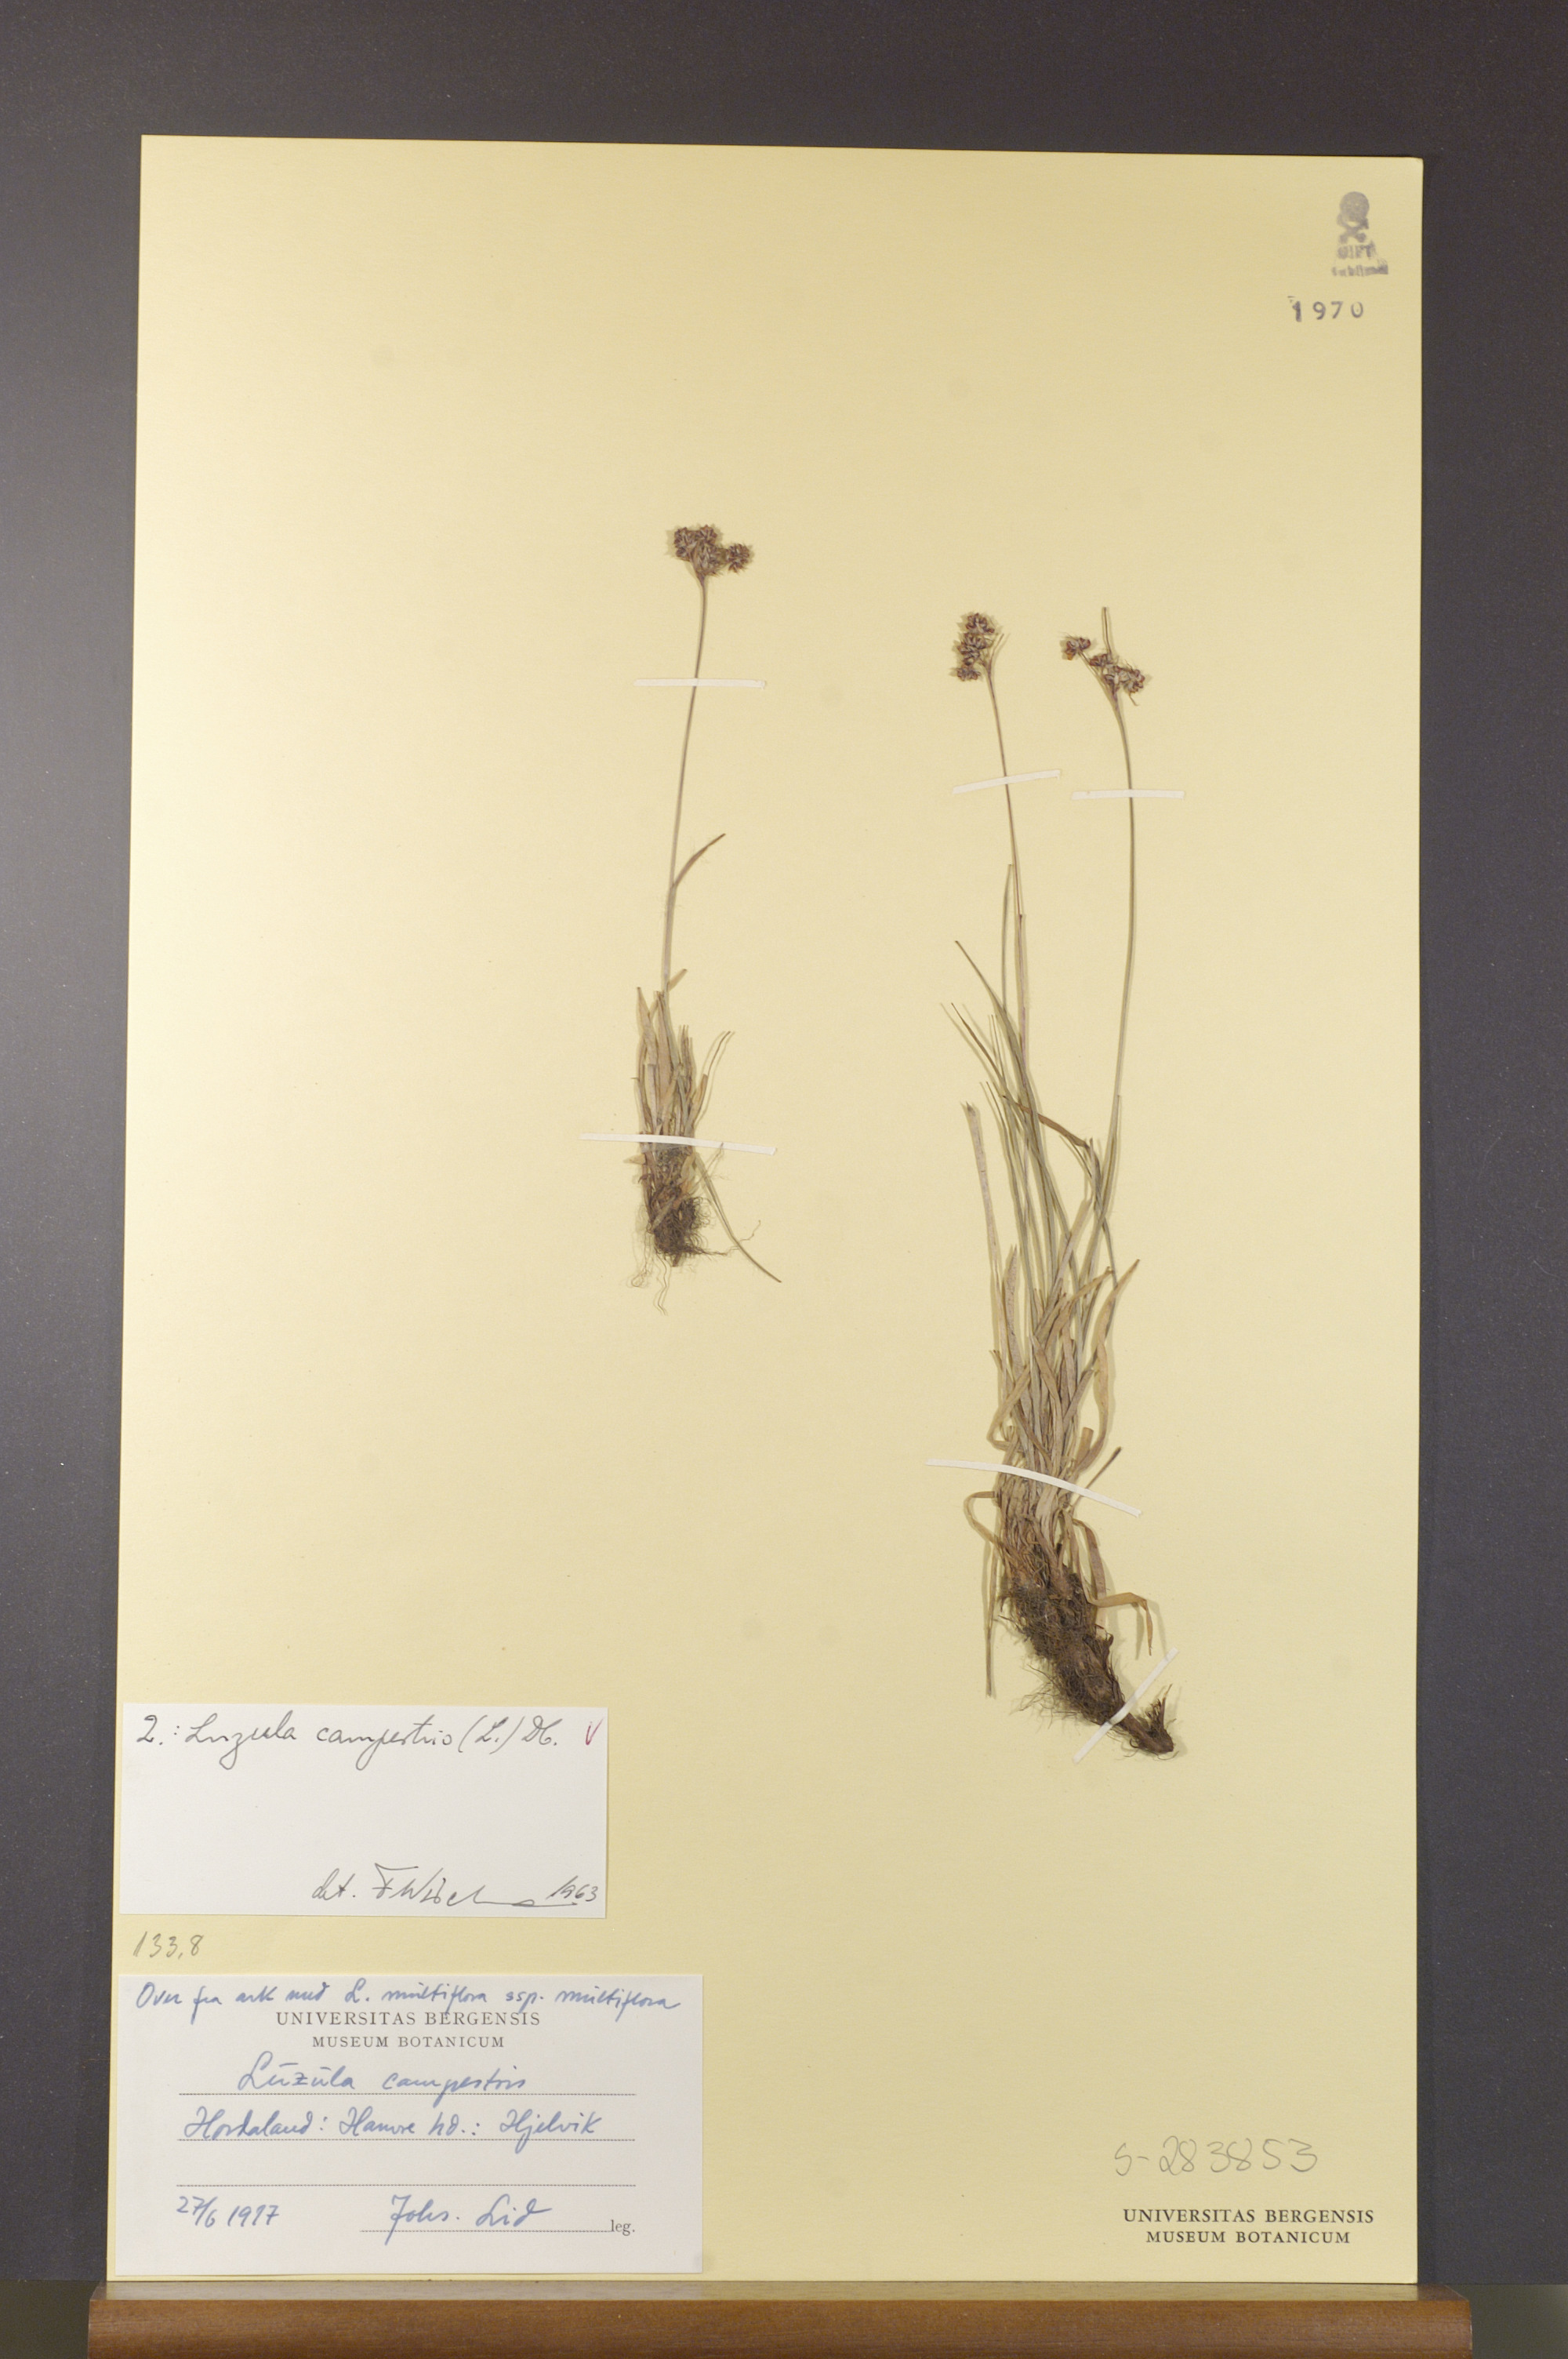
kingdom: Plantae
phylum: Tracheophyta
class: Liliopsida
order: Poales
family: Juncaceae
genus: Luzula
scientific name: Luzula campestris
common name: Field wood-rush
